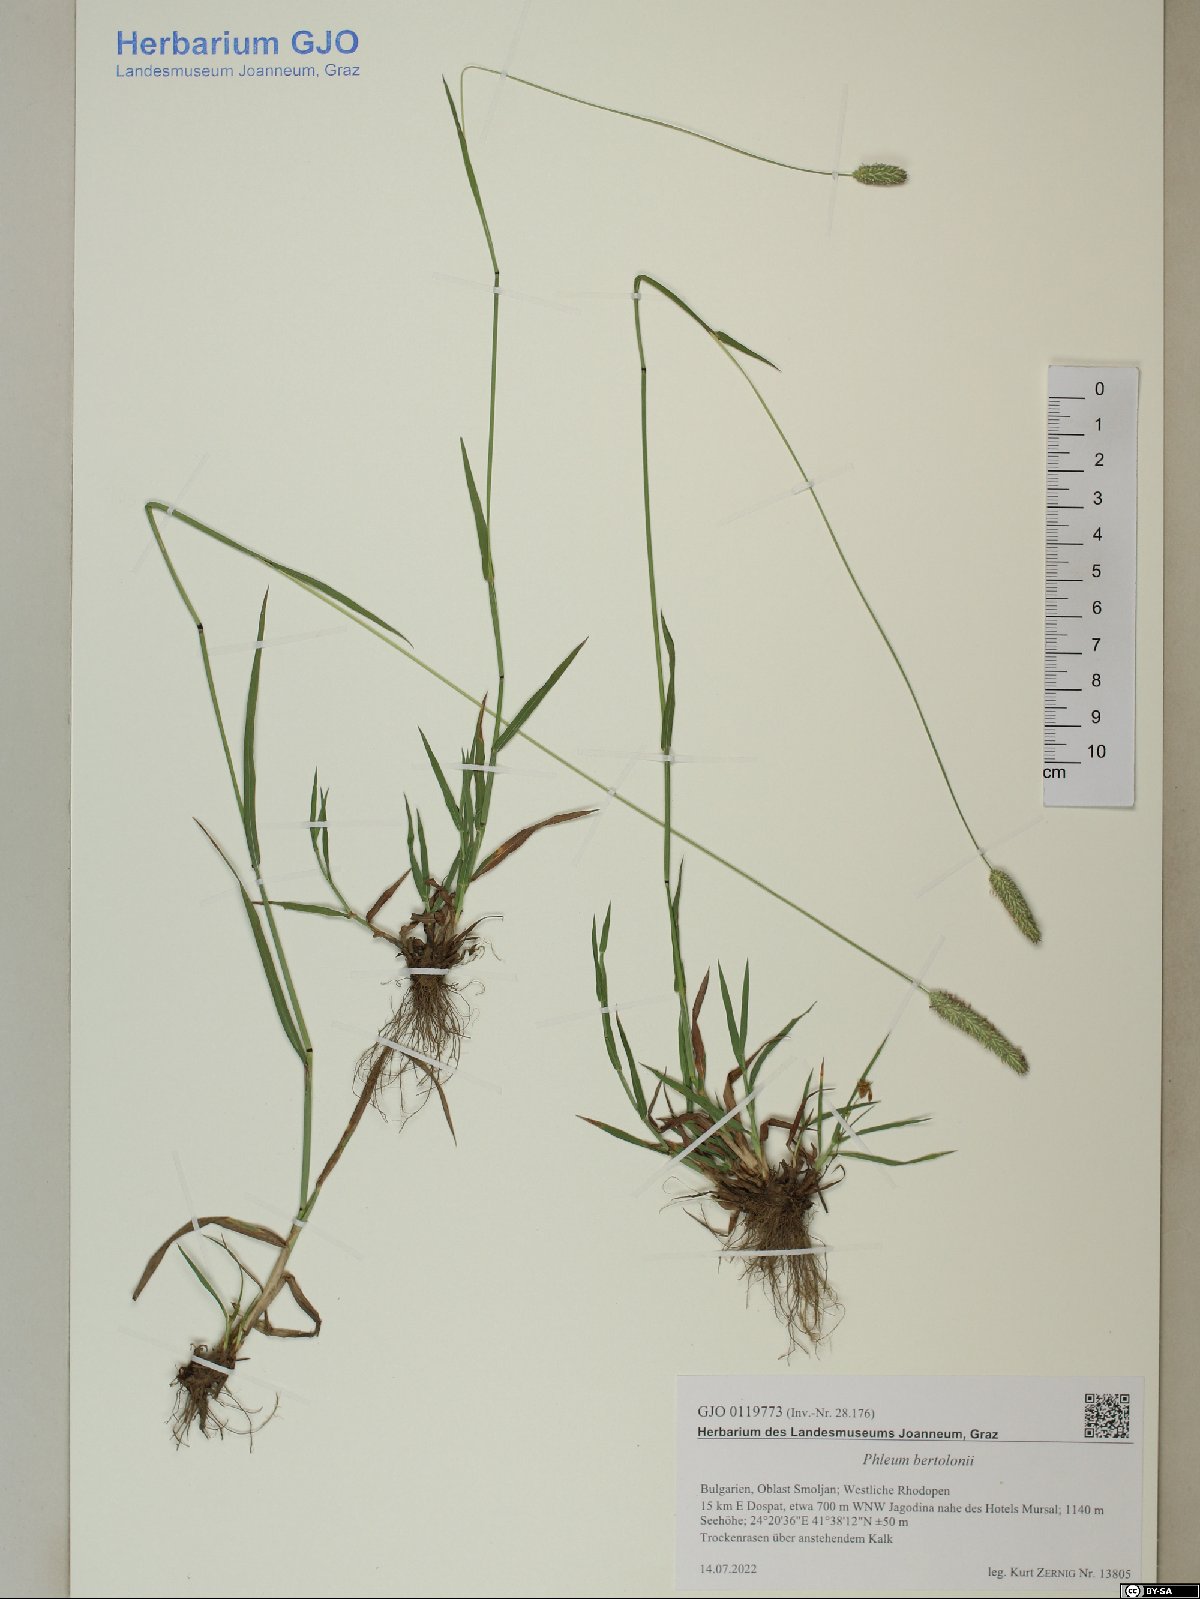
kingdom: Plantae
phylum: Tracheophyta
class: Liliopsida
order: Poales
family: Poaceae
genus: Phleum
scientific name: Phleum bertolonii
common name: Smaller cat's-tail
